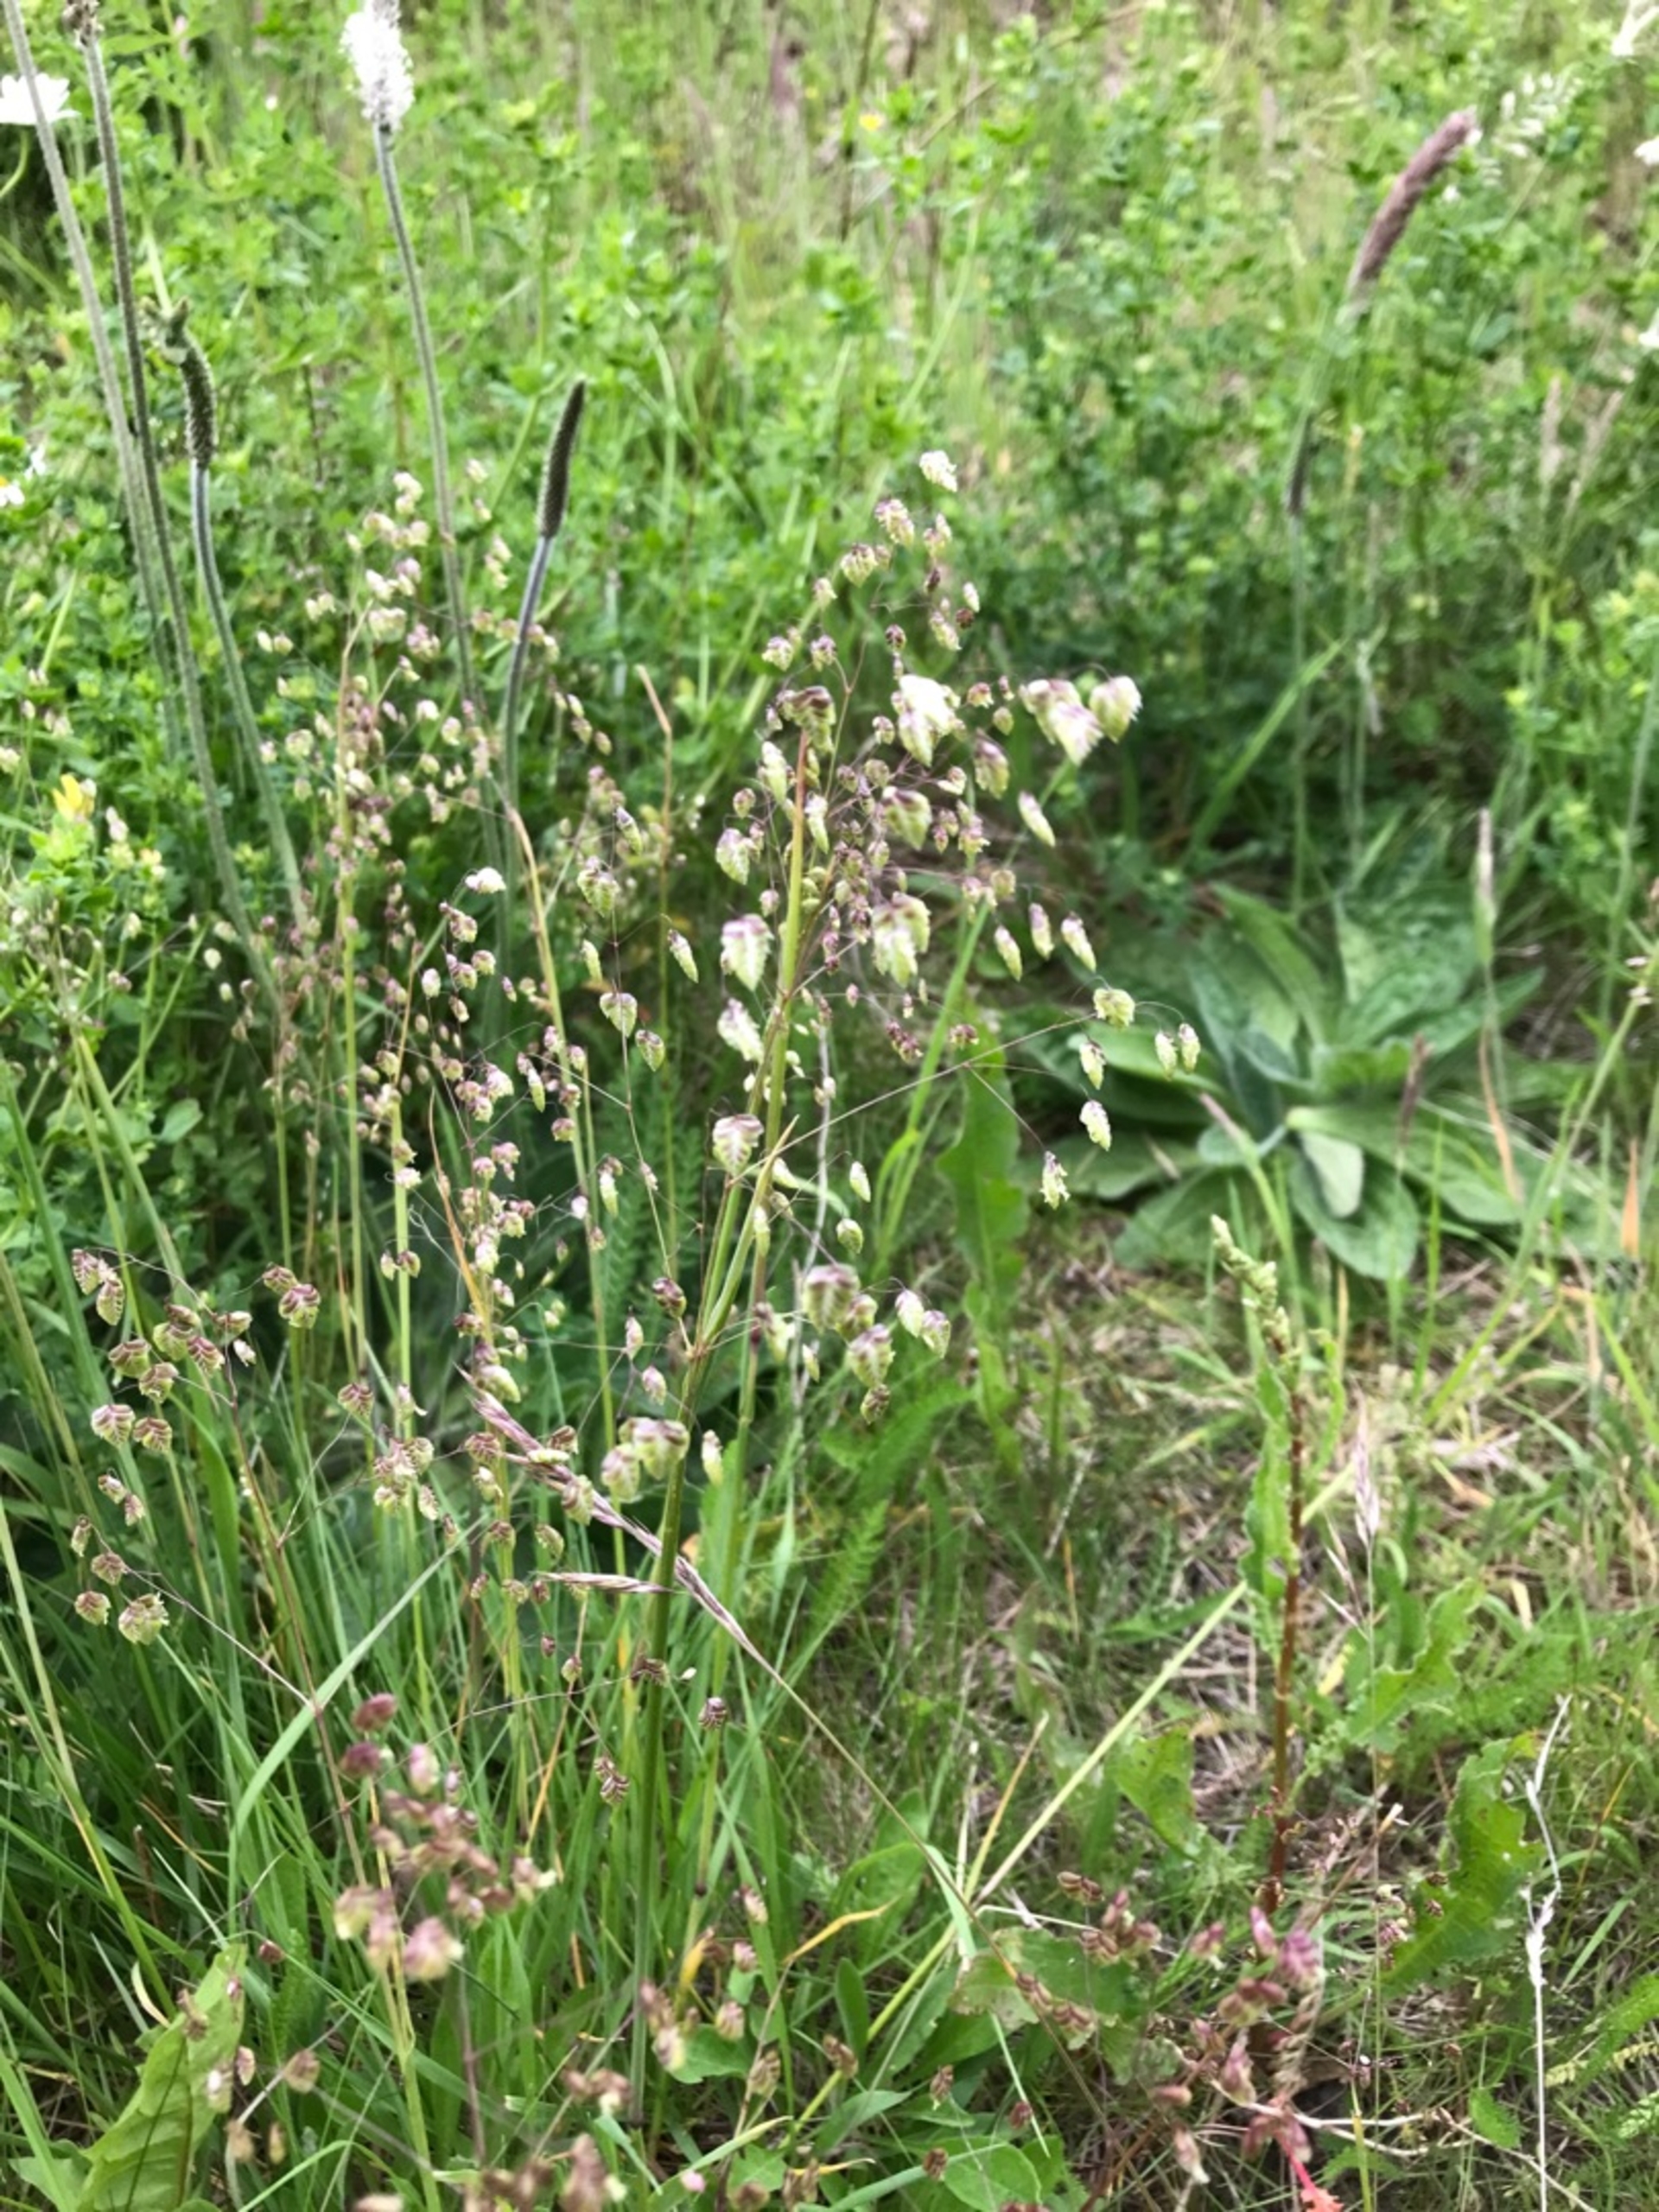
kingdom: Plantae
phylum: Tracheophyta
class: Liliopsida
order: Poales
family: Poaceae
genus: Briza
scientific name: Briza media
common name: Hjertegræs
